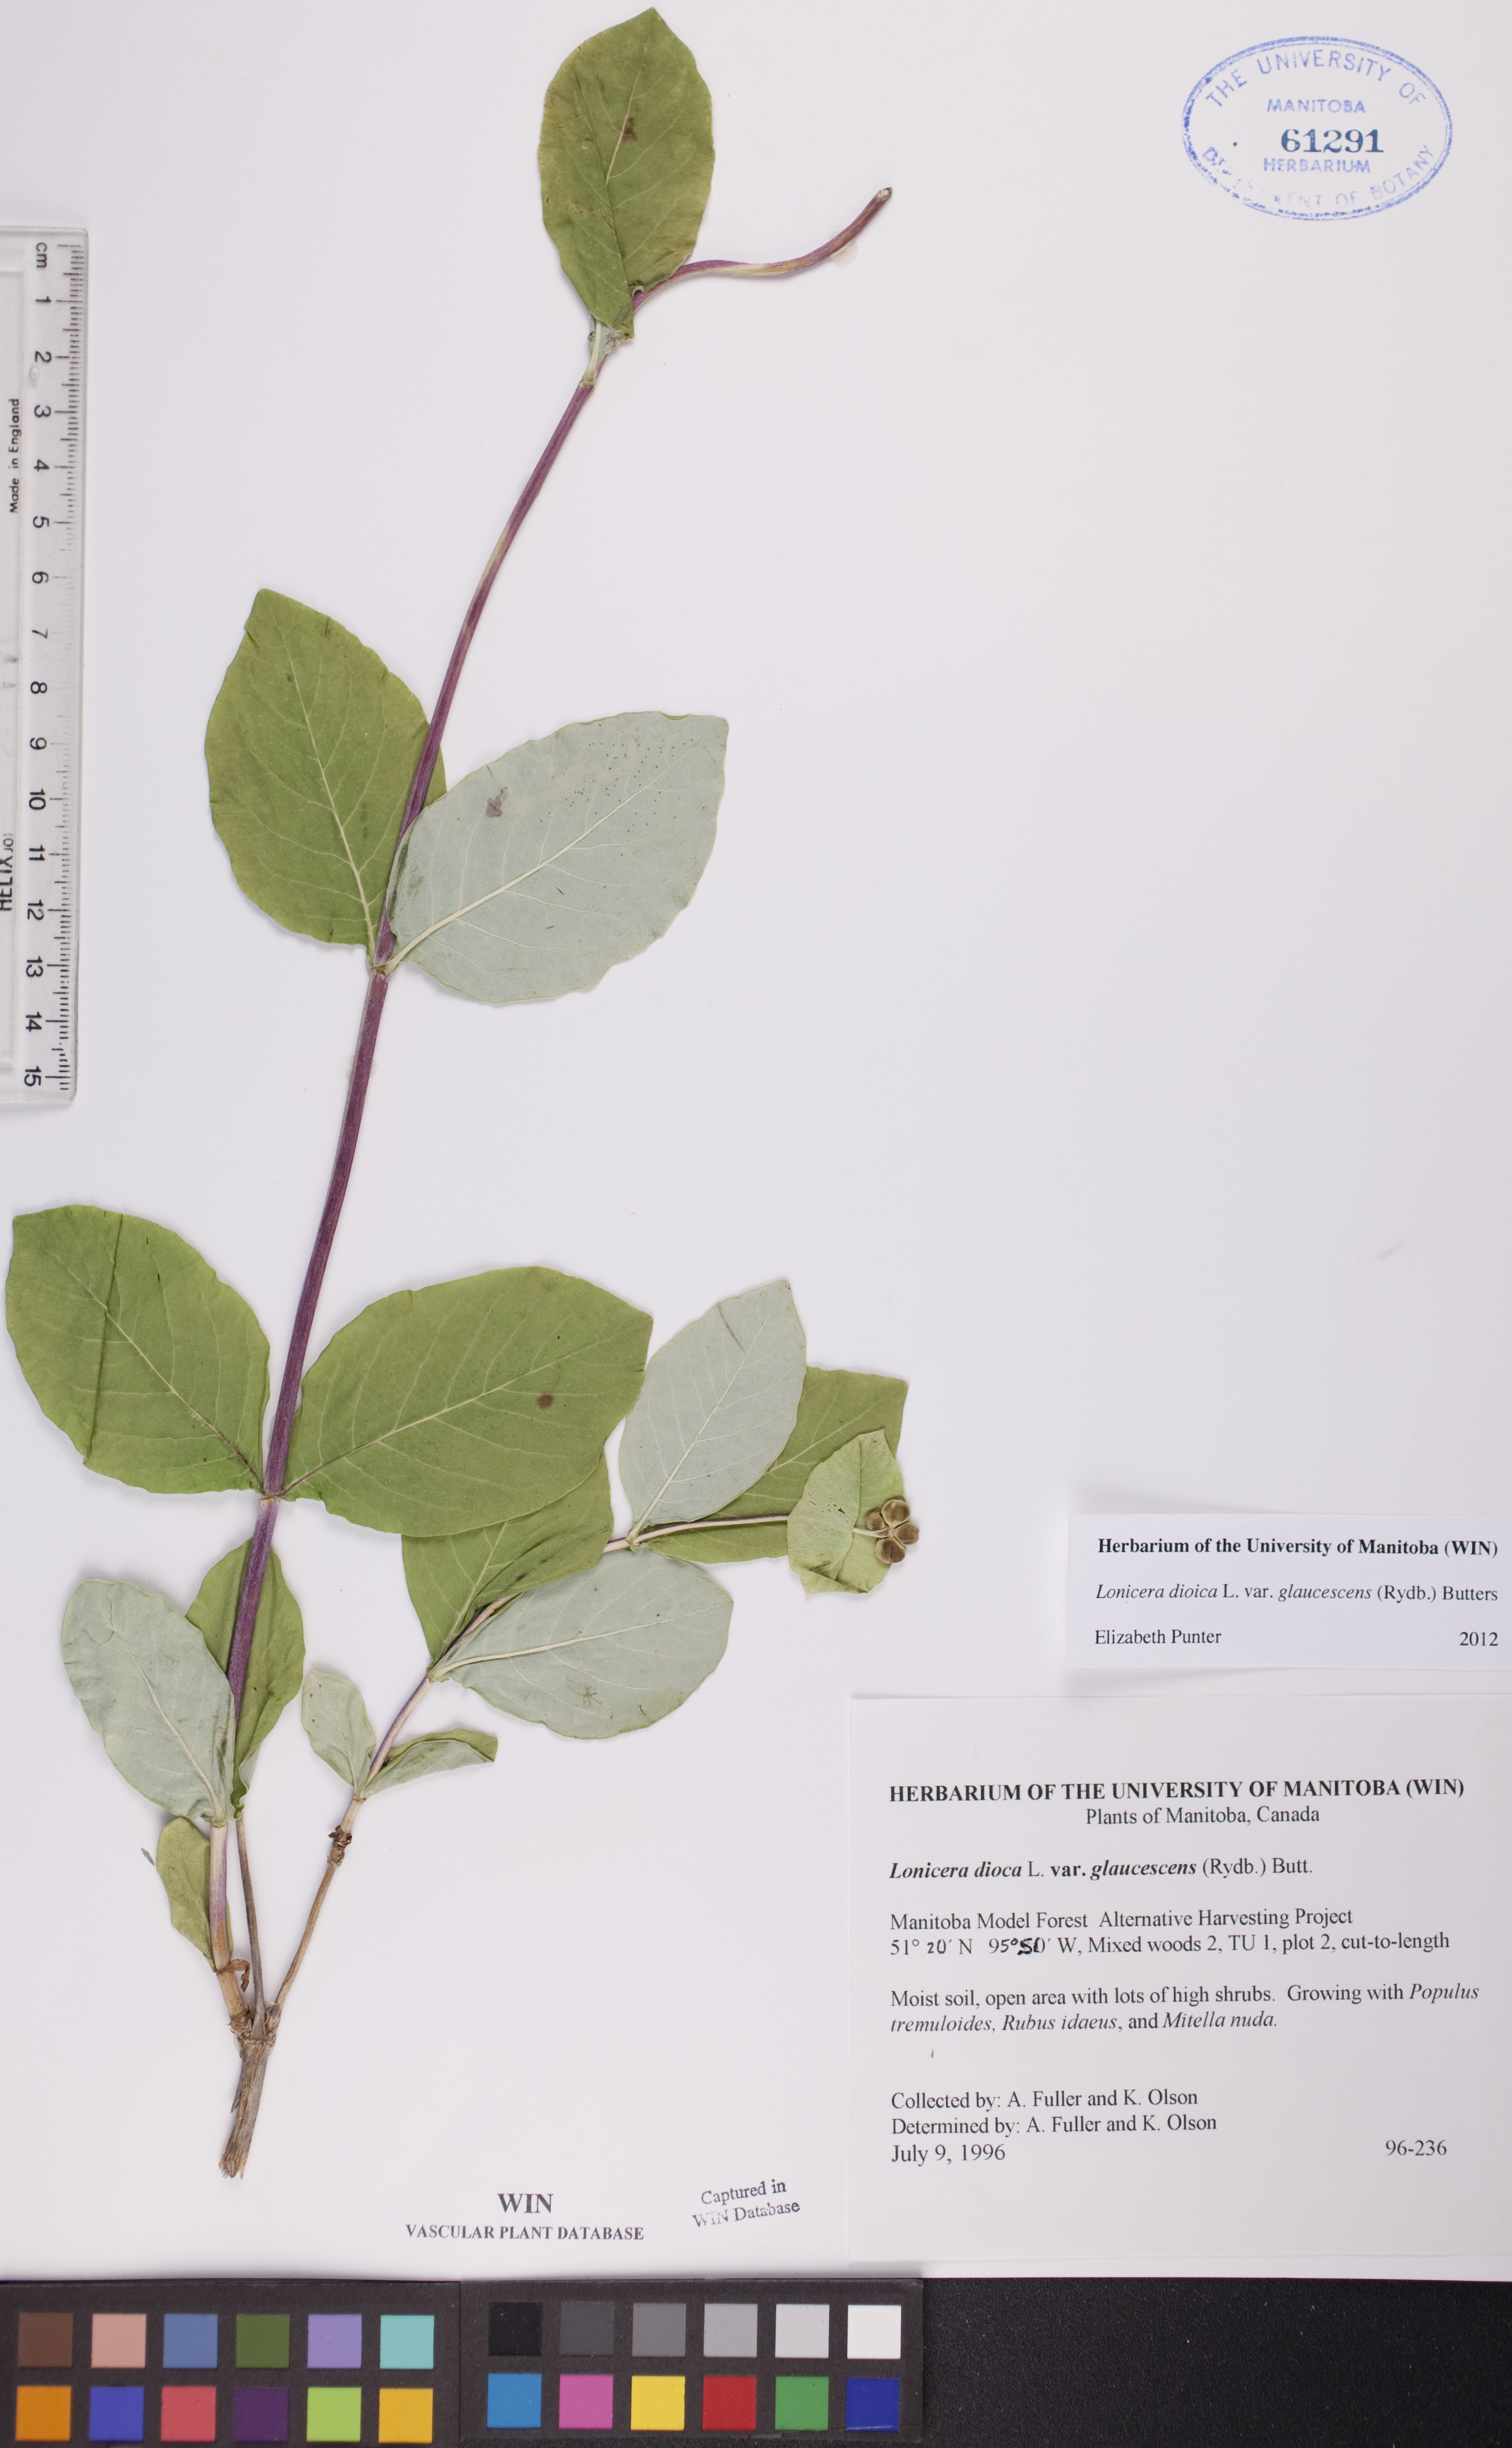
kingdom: Plantae
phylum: Tracheophyta
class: Magnoliopsida
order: Dipsacales
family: Caprifoliaceae
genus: Lonicera
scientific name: Lonicera dioica
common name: Limber honeysuckle
